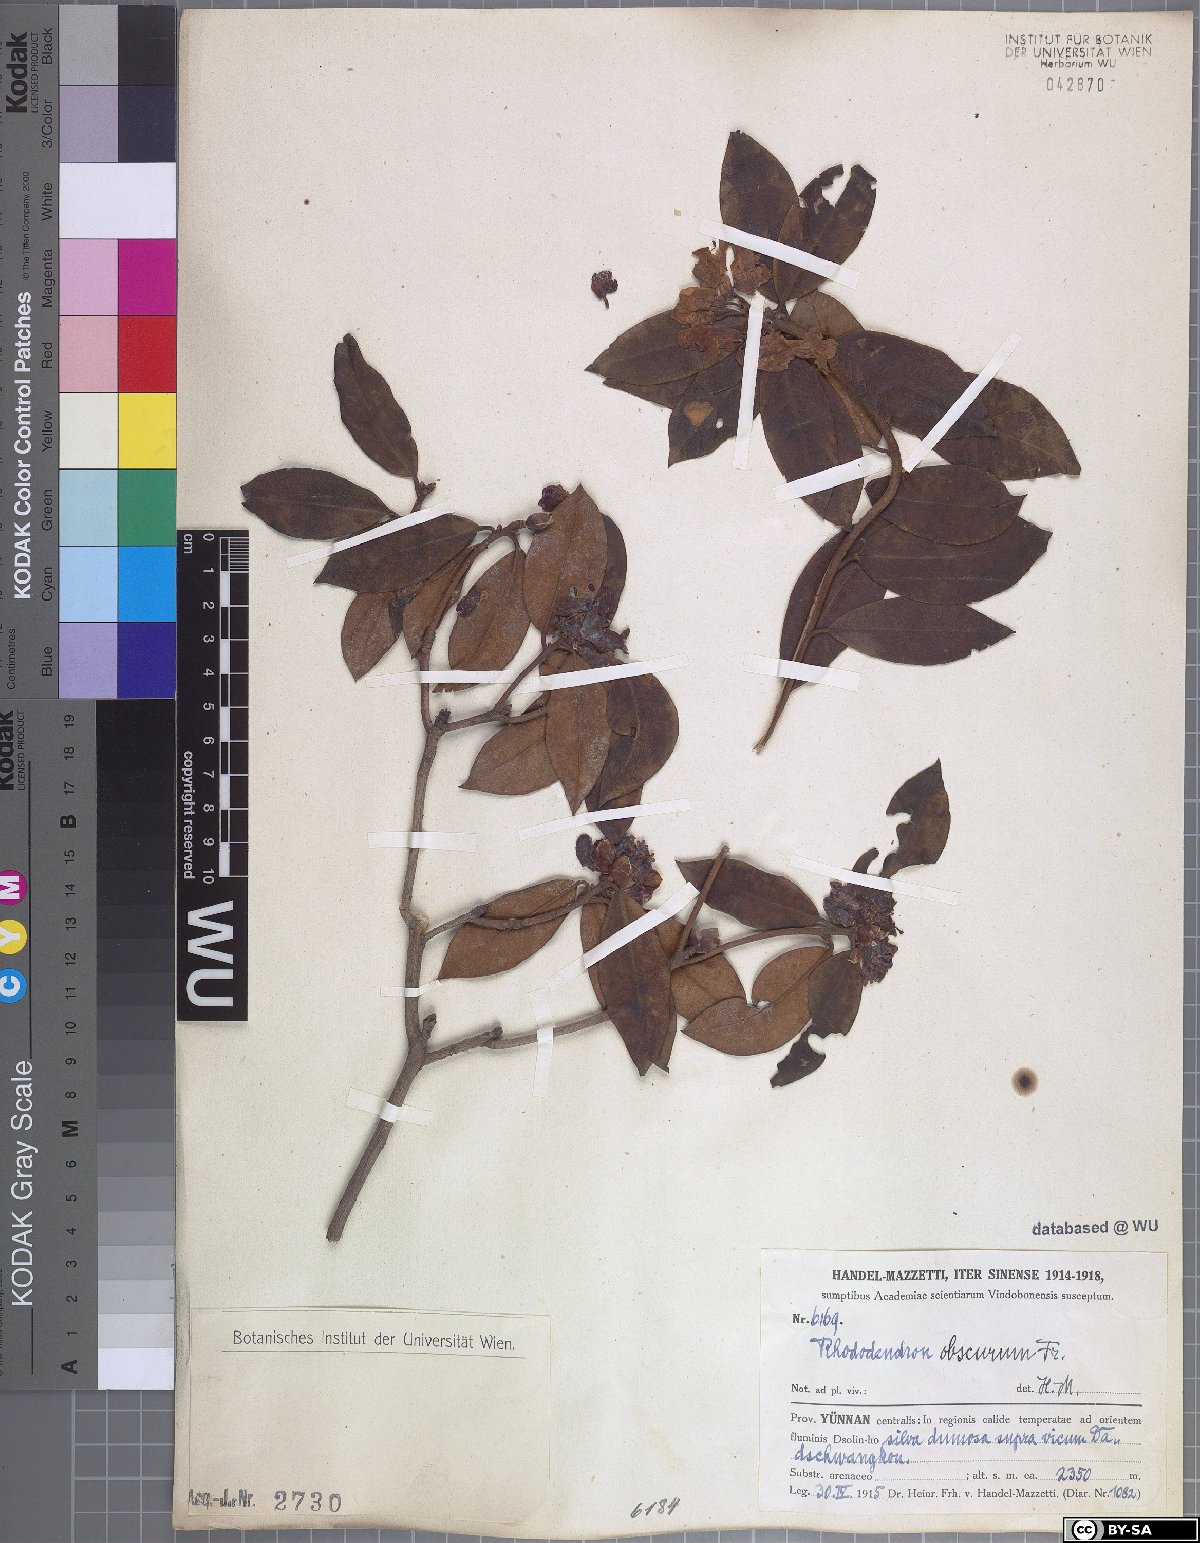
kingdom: Plantae
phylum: Tracheophyta
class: Magnoliopsida
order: Ericales
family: Ericaceae
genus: Rhododendron
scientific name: Rhododendron benomense
